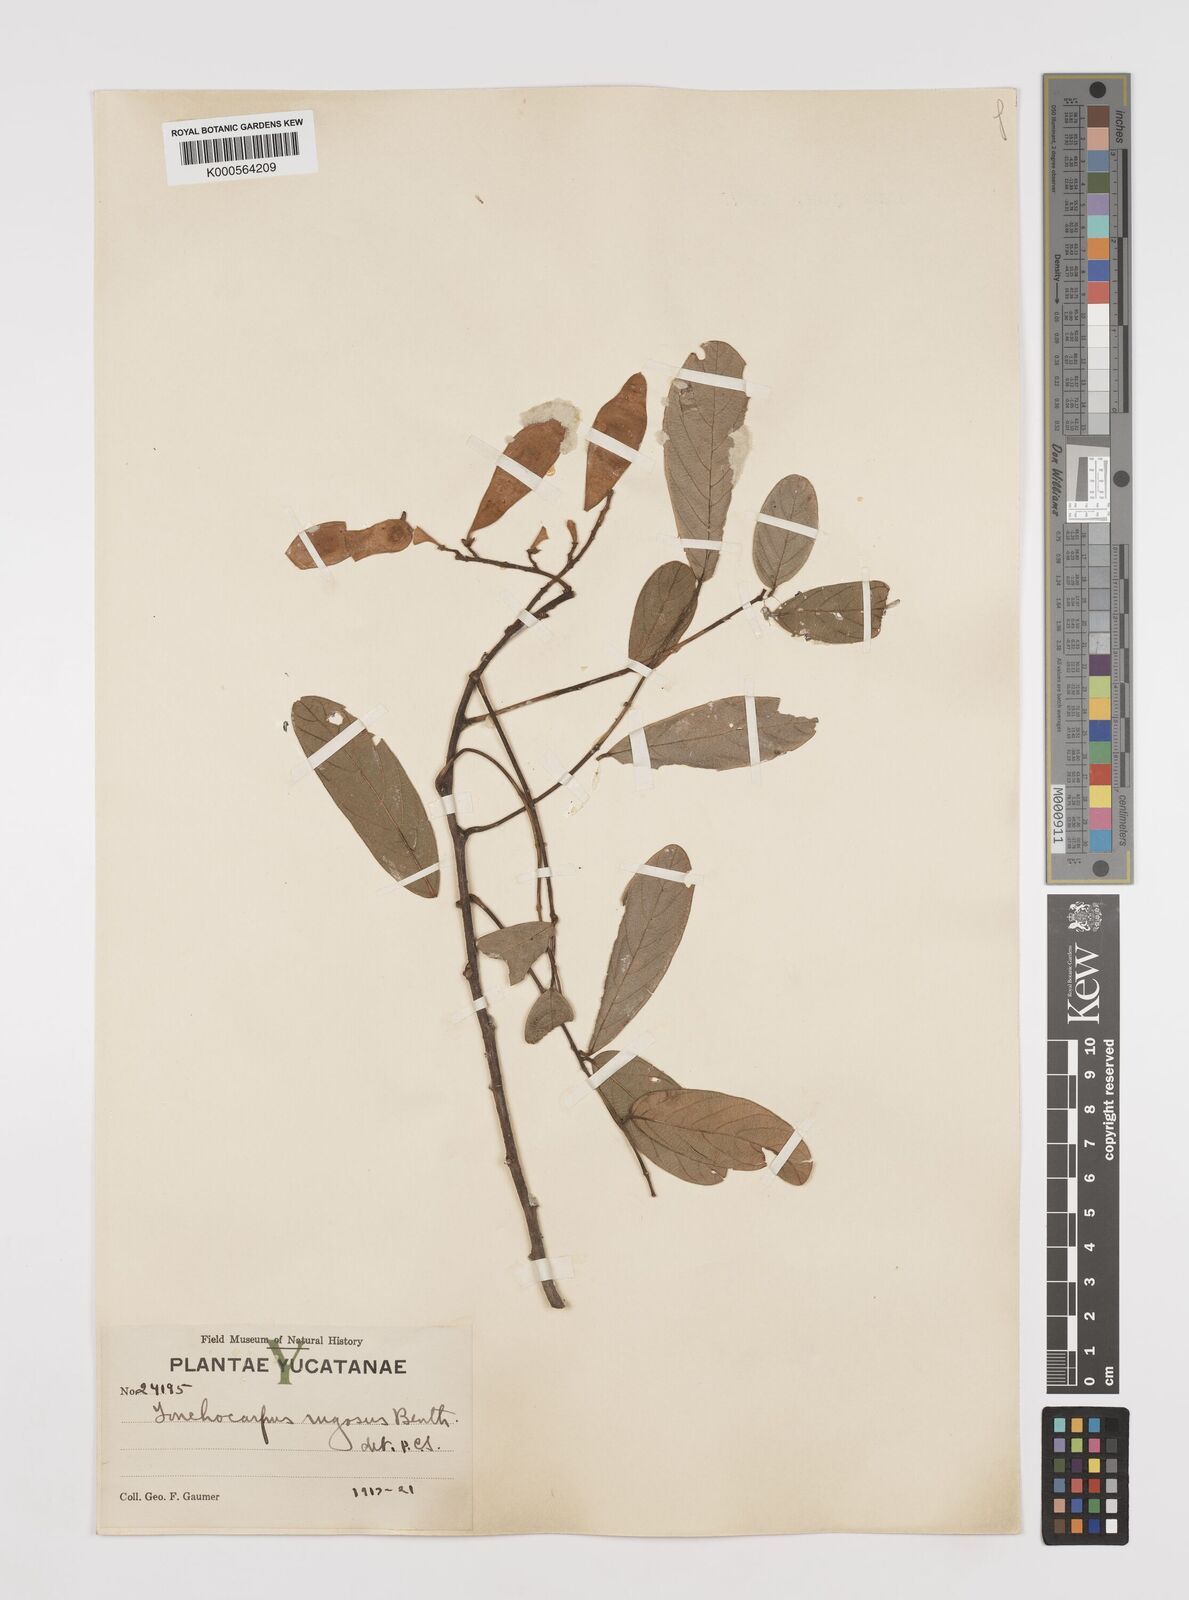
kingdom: Plantae
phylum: Tracheophyta
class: Magnoliopsida
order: Fabales
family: Fabaceae
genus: Lonchocarpus
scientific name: Lonchocarpus rugosus
